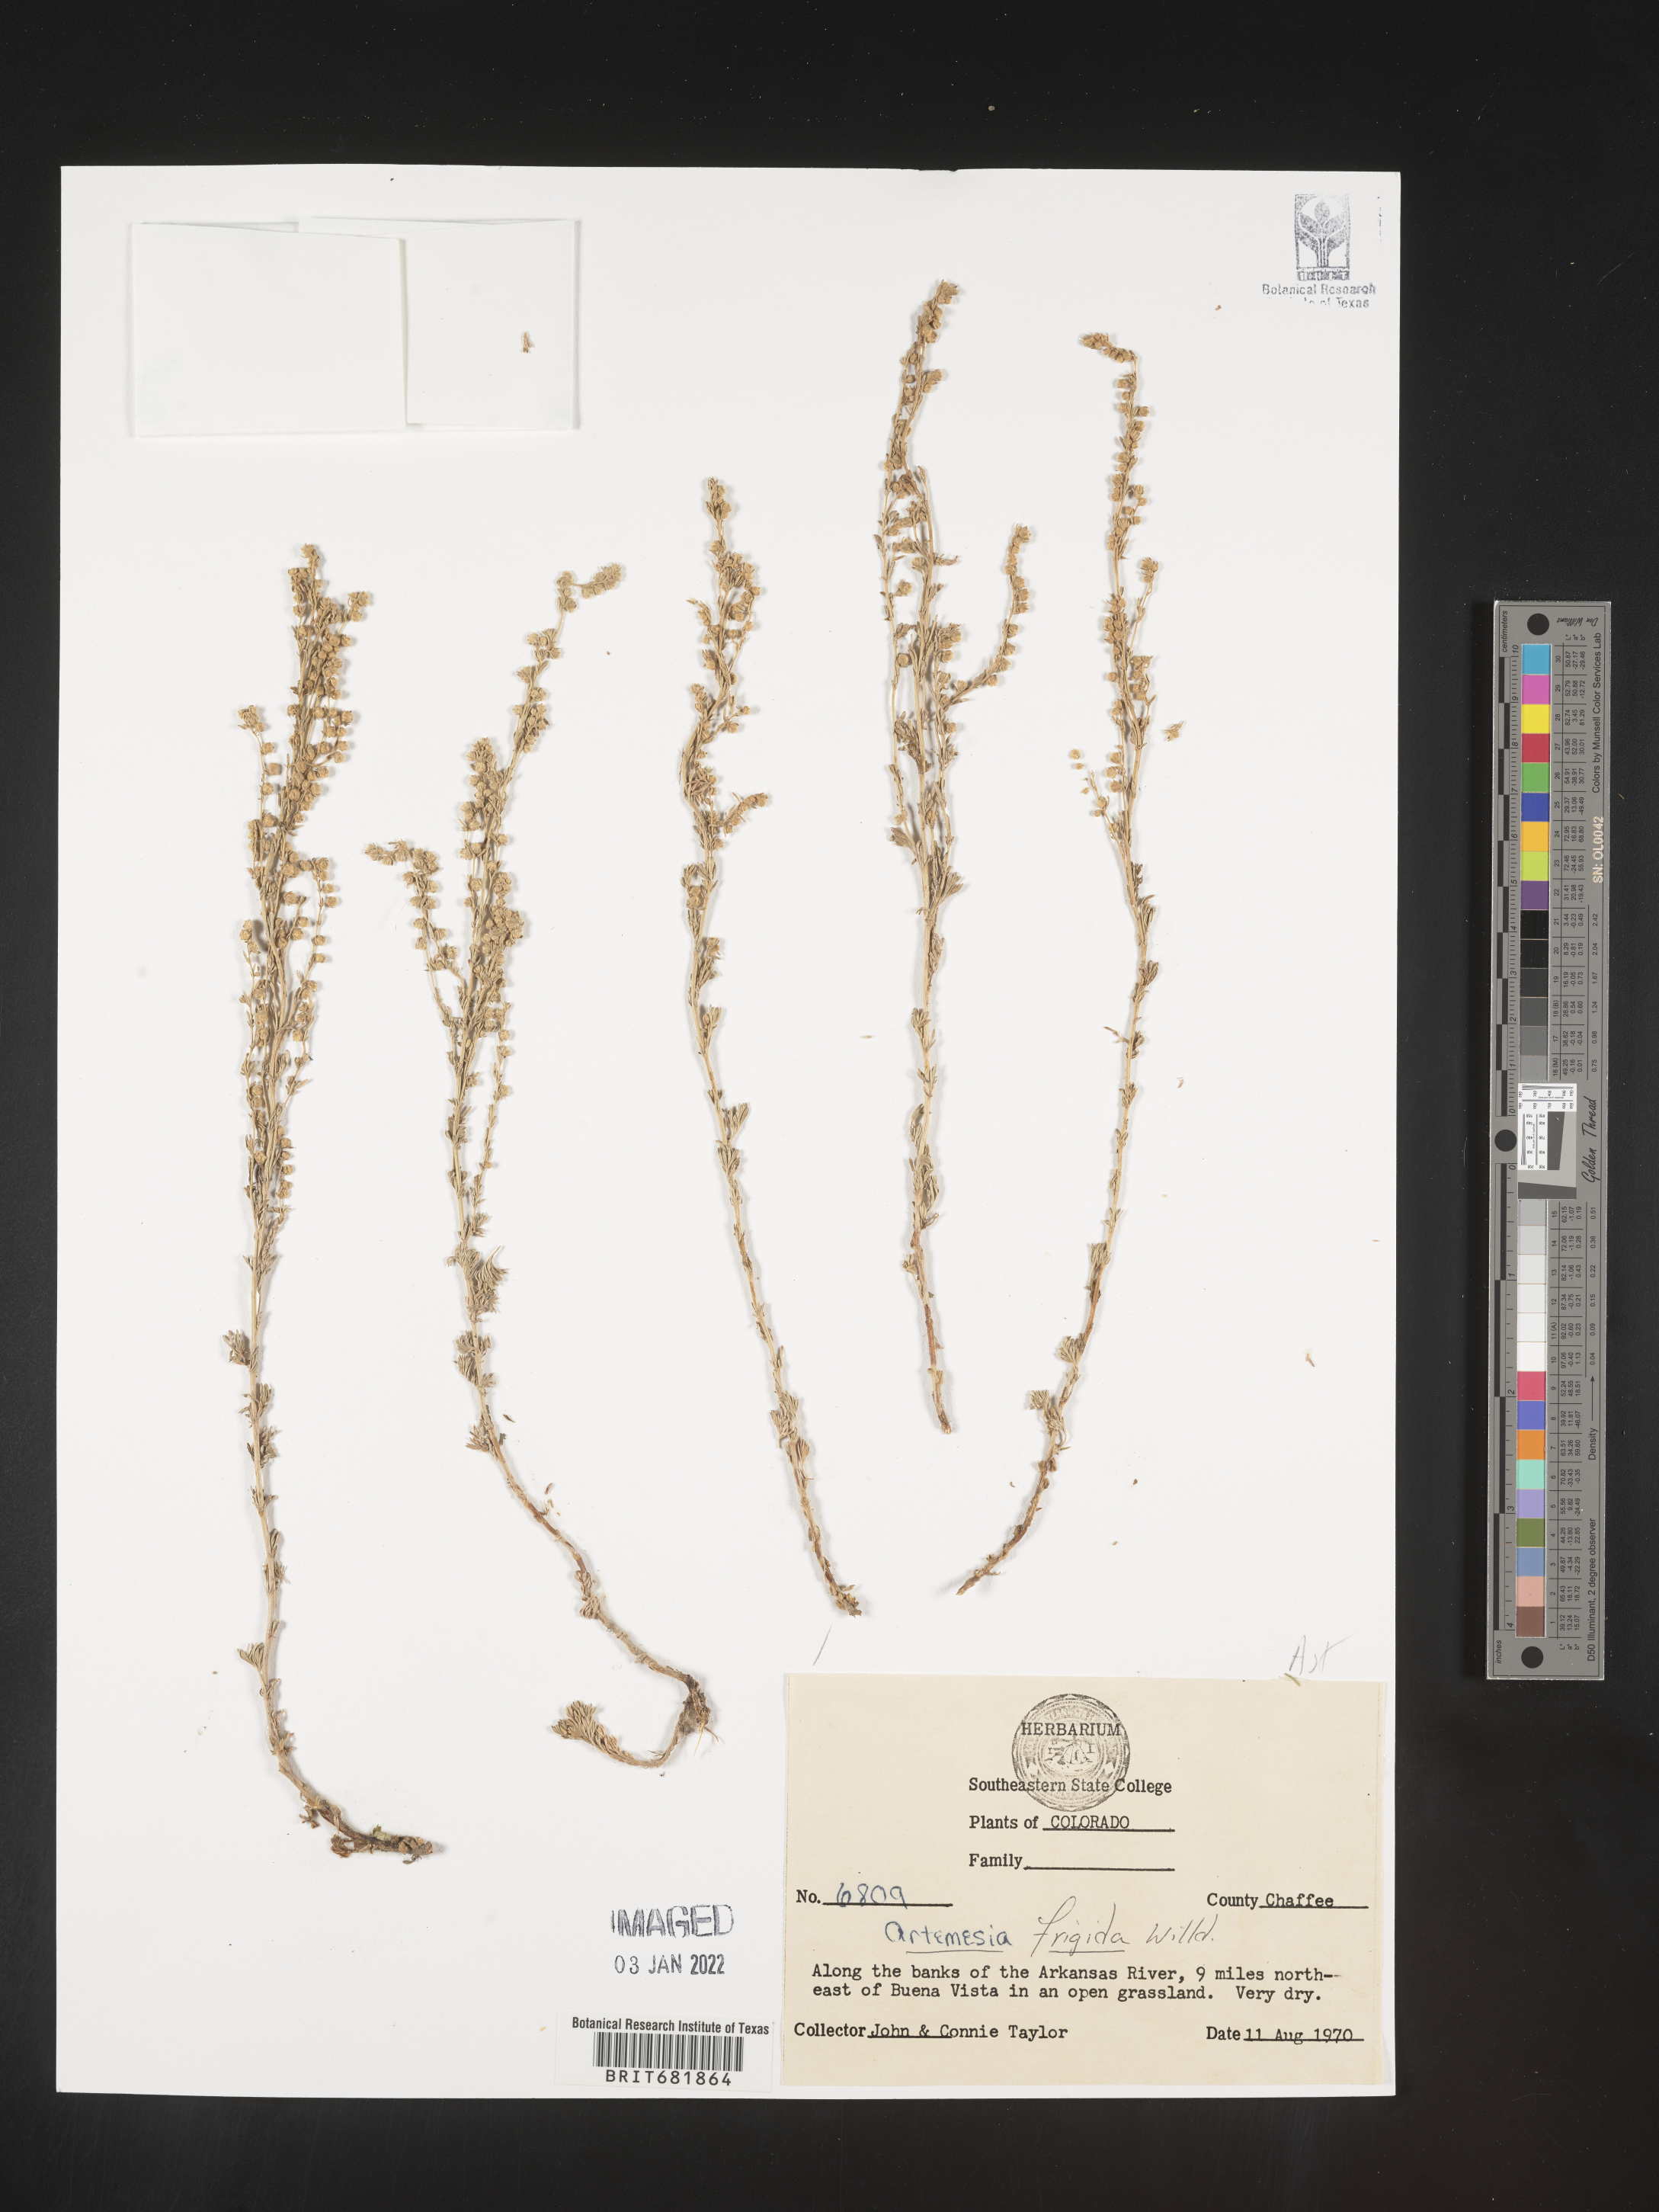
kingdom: Plantae
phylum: Tracheophyta
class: Magnoliopsida
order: Asterales
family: Asteraceae
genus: Artemisia
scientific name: Artemisia frigida
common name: Prairie sagewort
